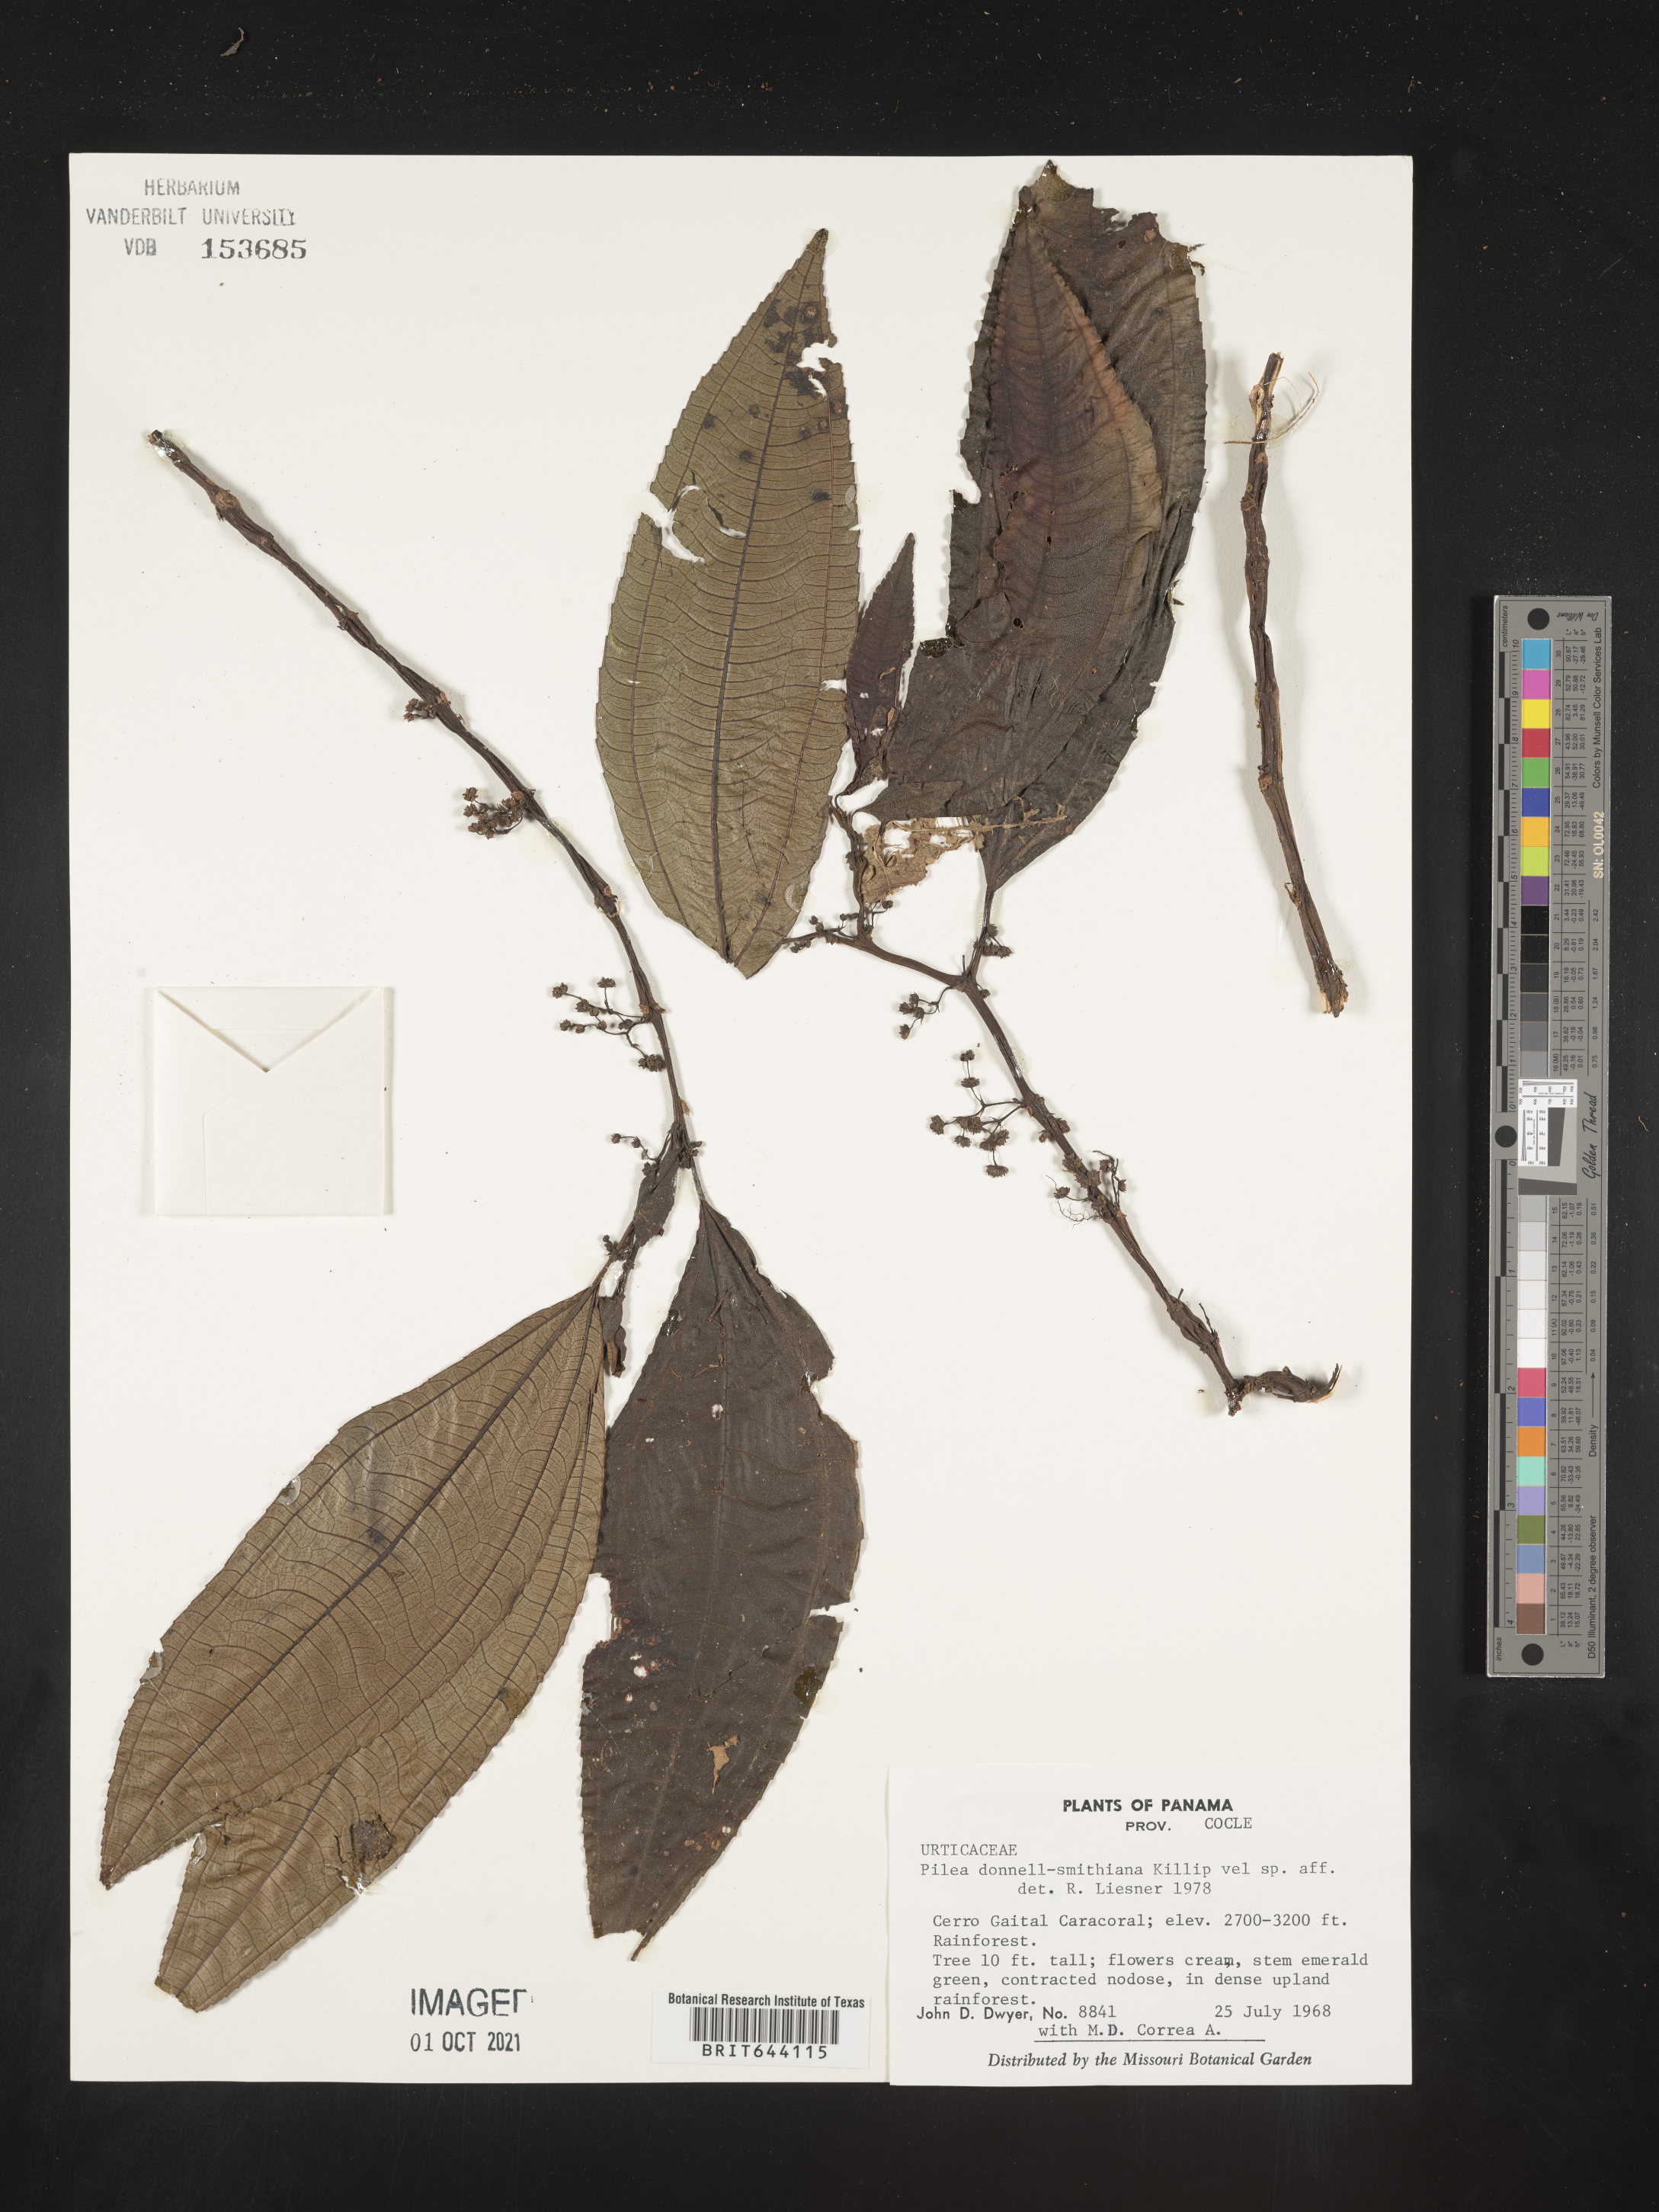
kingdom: Plantae
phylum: Tracheophyta
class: Magnoliopsida
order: Rosales
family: Urticaceae
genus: Pilea
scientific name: Pilea
